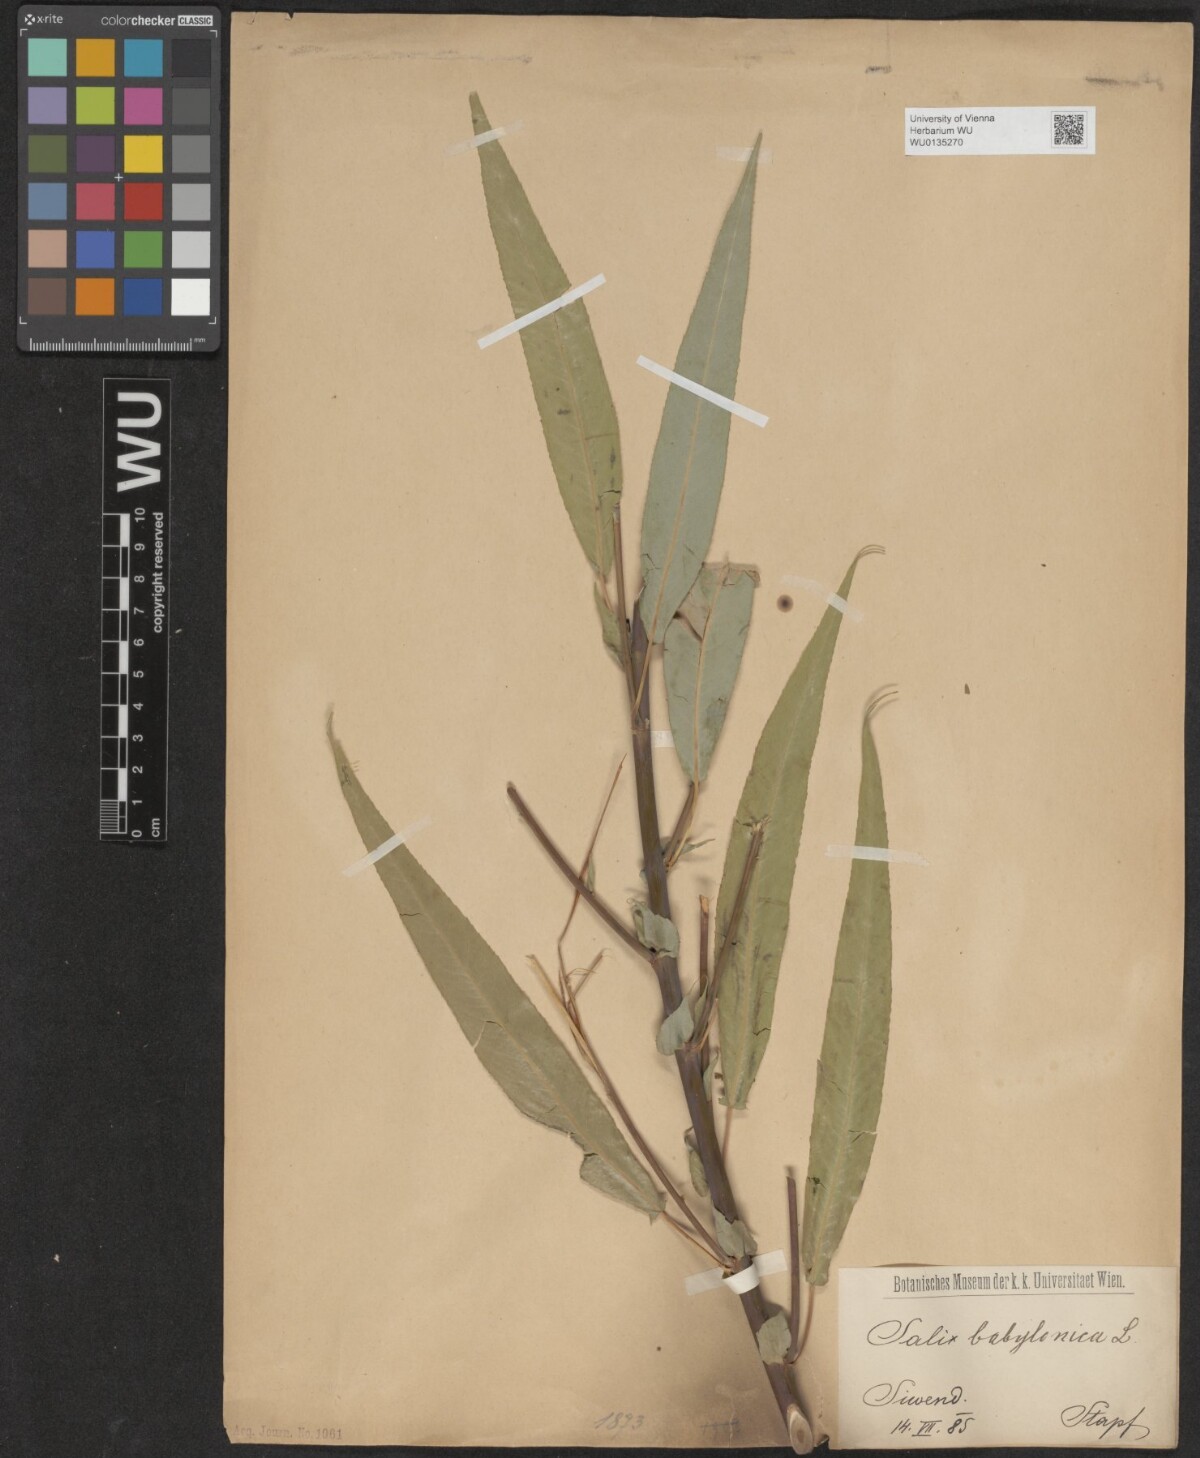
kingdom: Plantae
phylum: Tracheophyta
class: Magnoliopsida
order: Malpighiales
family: Salicaceae
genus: Salix
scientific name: Salix acmophylla
